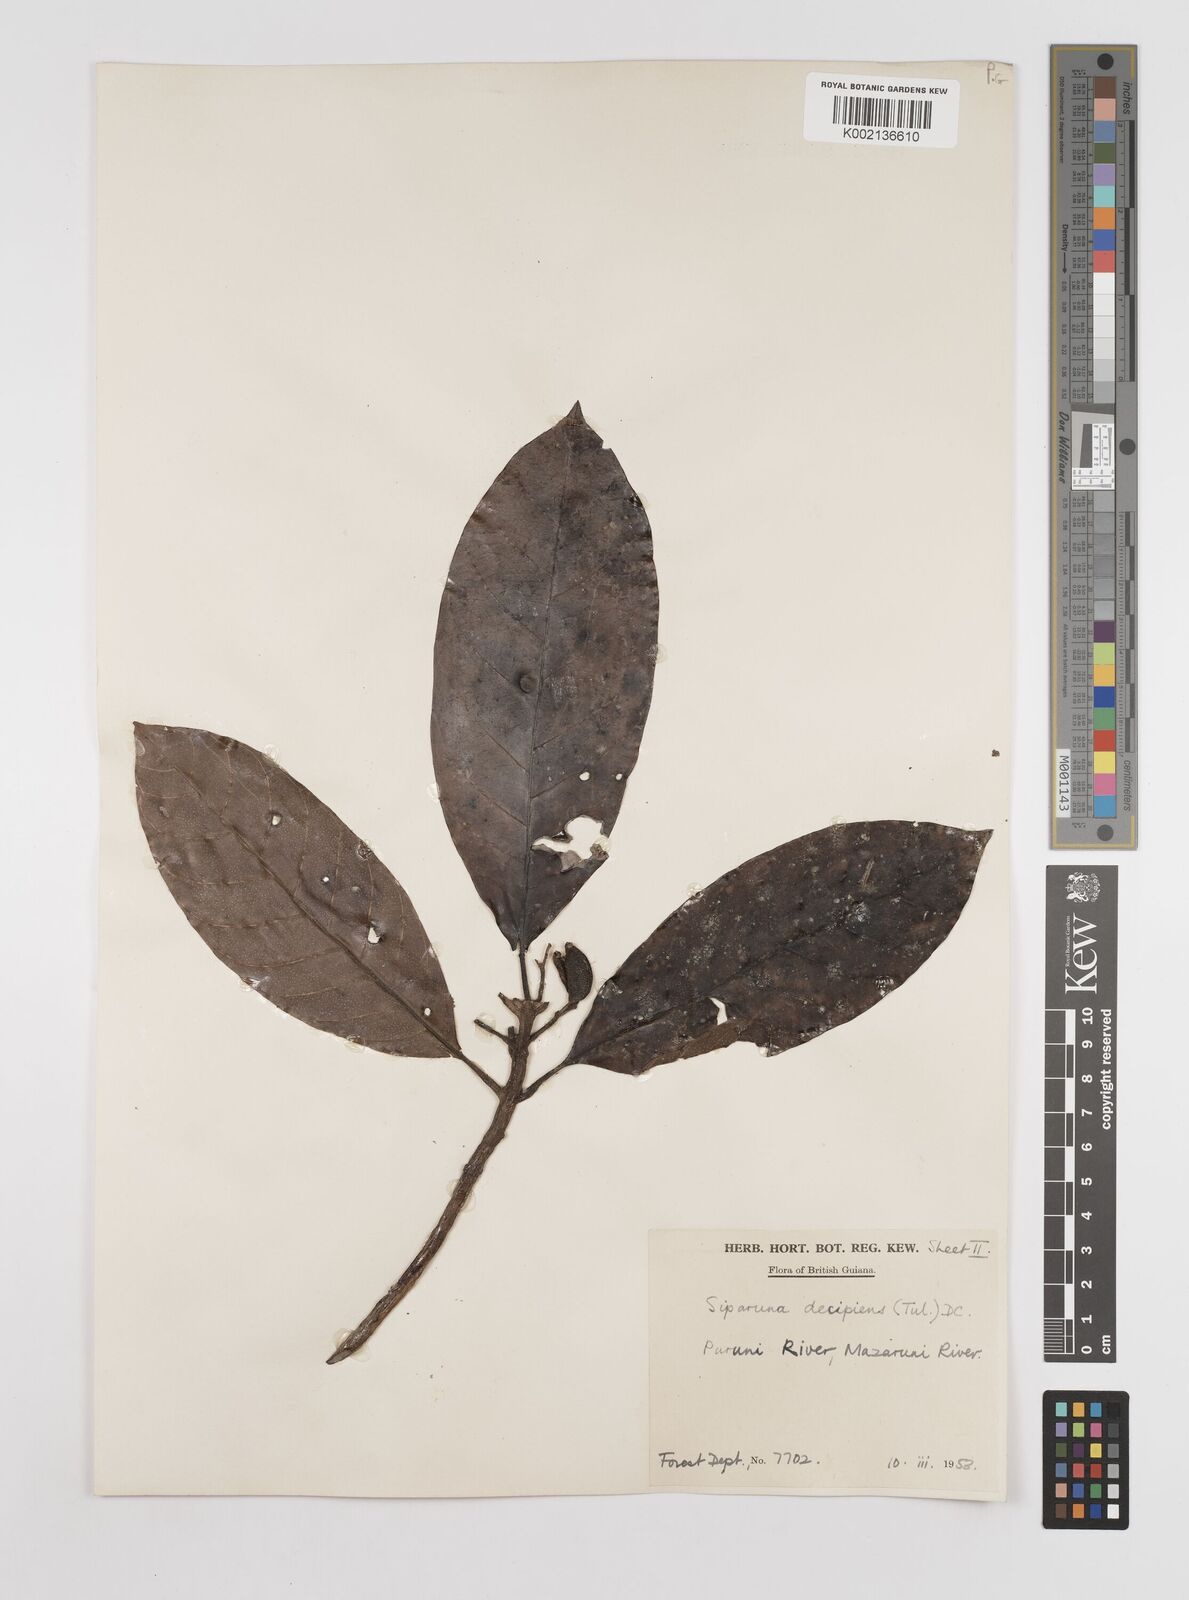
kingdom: Plantae
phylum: Tracheophyta
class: Magnoliopsida
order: Laurales
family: Siparunaceae
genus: Siparuna
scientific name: Siparuna decipiens
